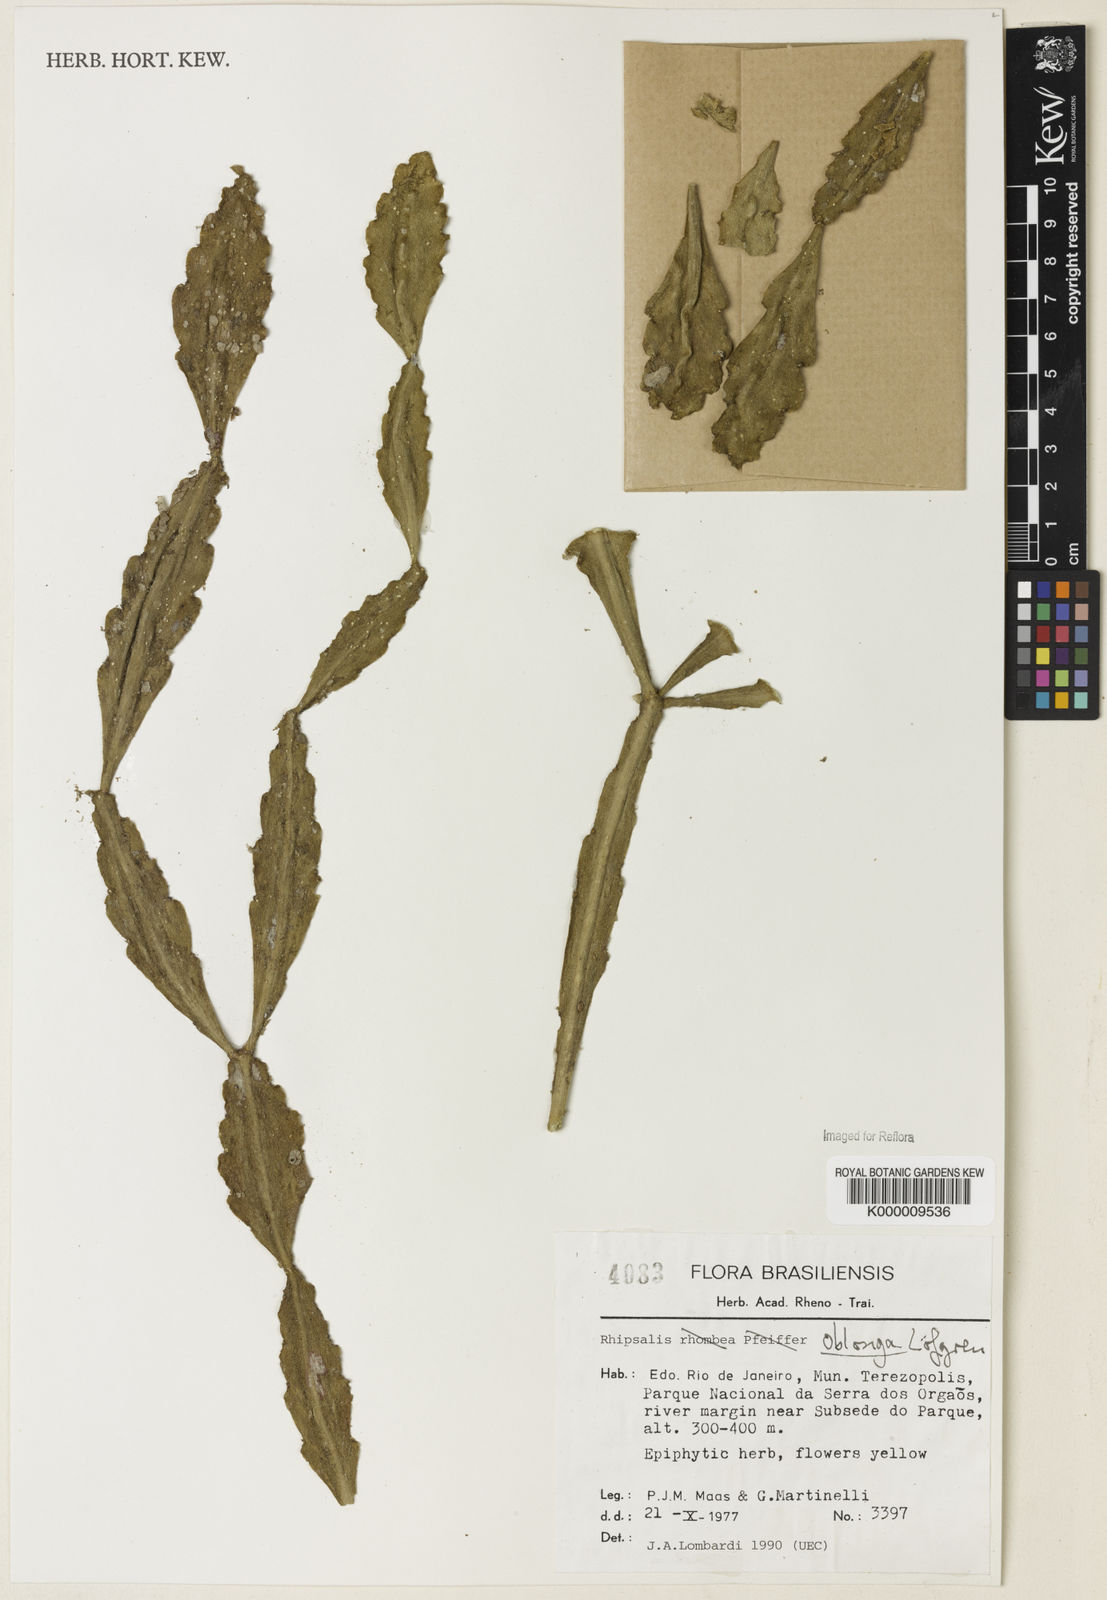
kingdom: Plantae
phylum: Tracheophyta
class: Magnoliopsida
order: Caryophyllales
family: Cactaceae
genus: Rhipsalis
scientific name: Rhipsalis
